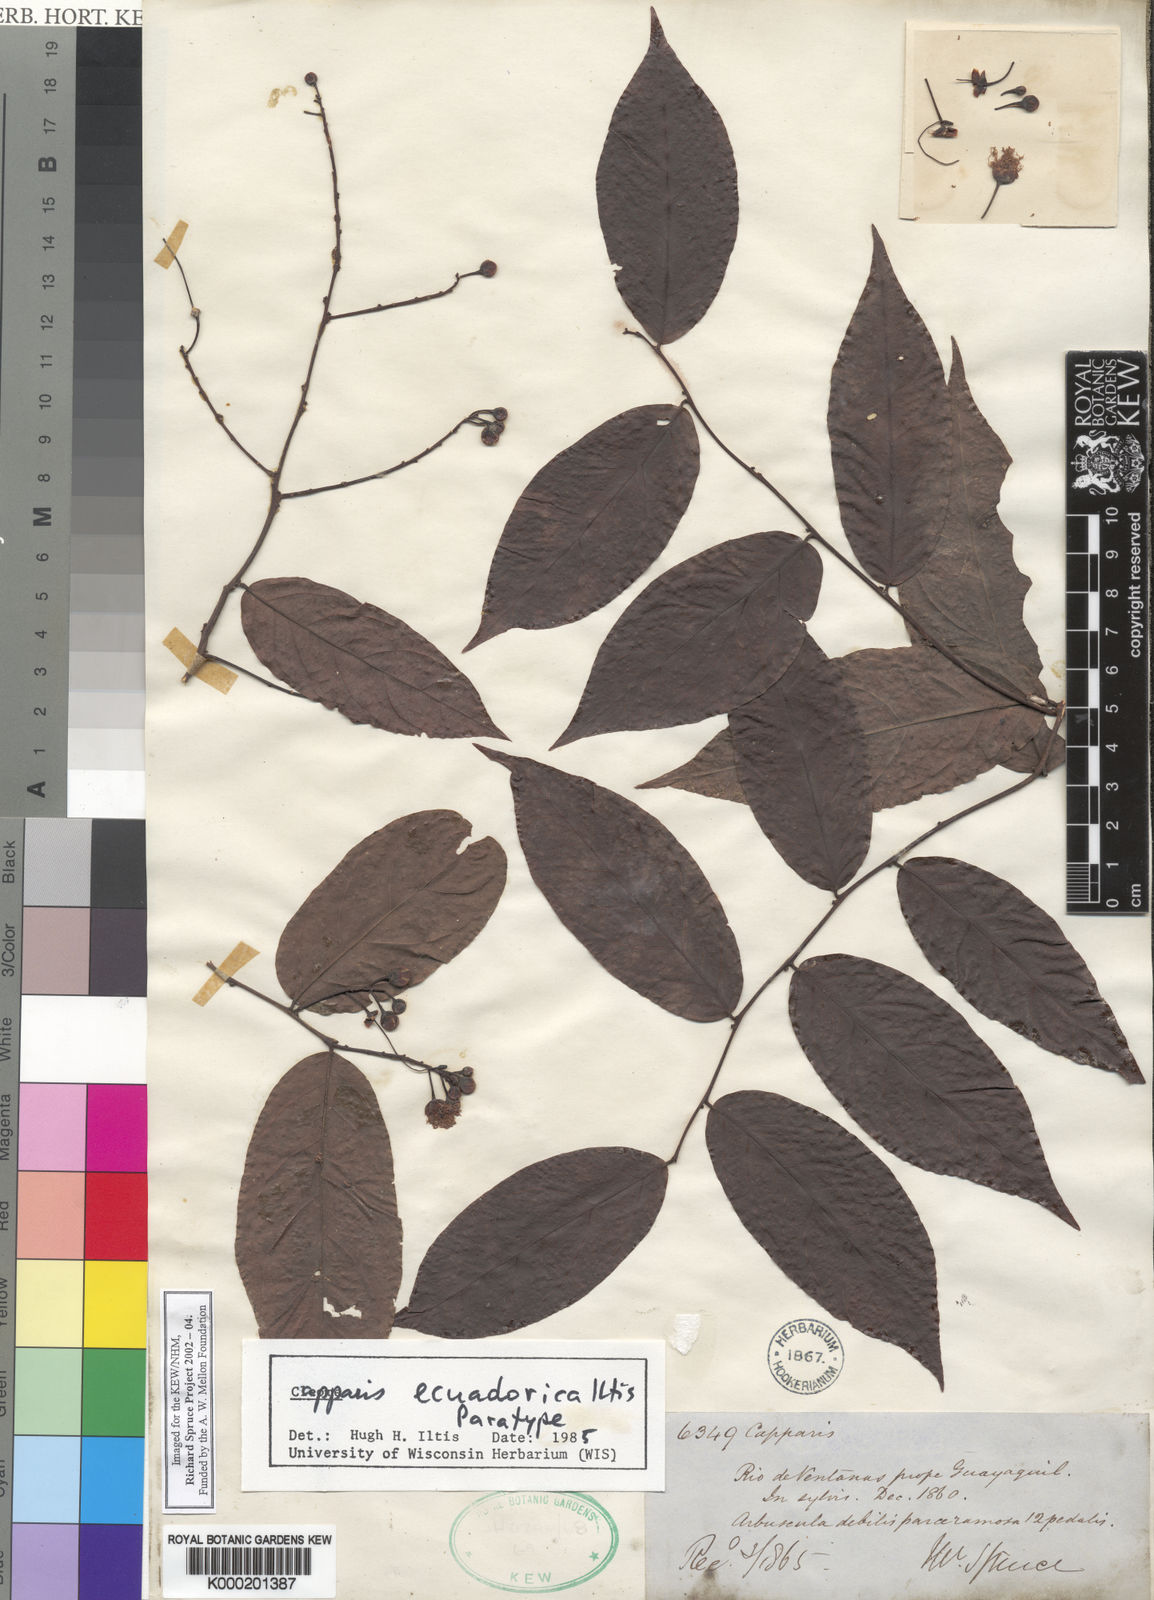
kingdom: Plantae
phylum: Tracheophyta
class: Magnoliopsida
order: Brassicales
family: Capparaceae
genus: Cynophalla
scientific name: Cynophalla ecuadorica
